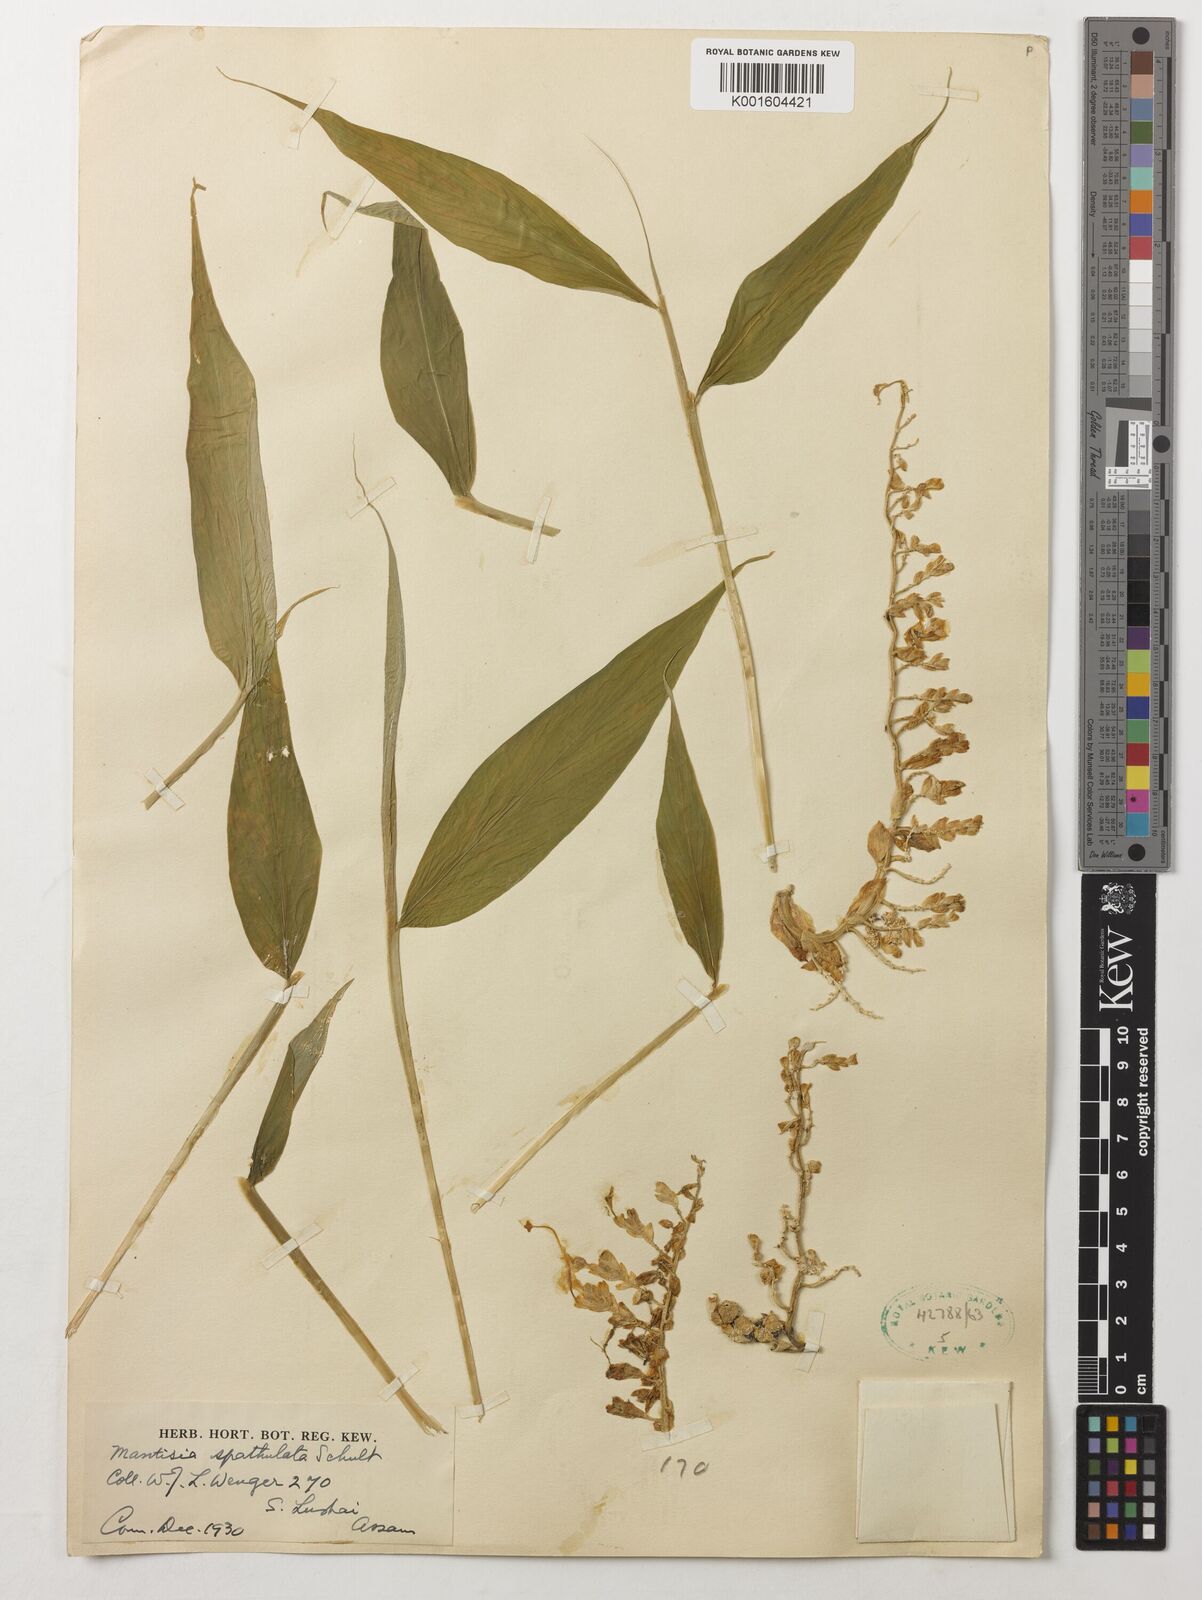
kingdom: Plantae
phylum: Tracheophyta
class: Liliopsida
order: Zingiberales
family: Zingiberaceae
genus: Globba
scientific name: Globba spathulata
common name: Dancing girl flower
